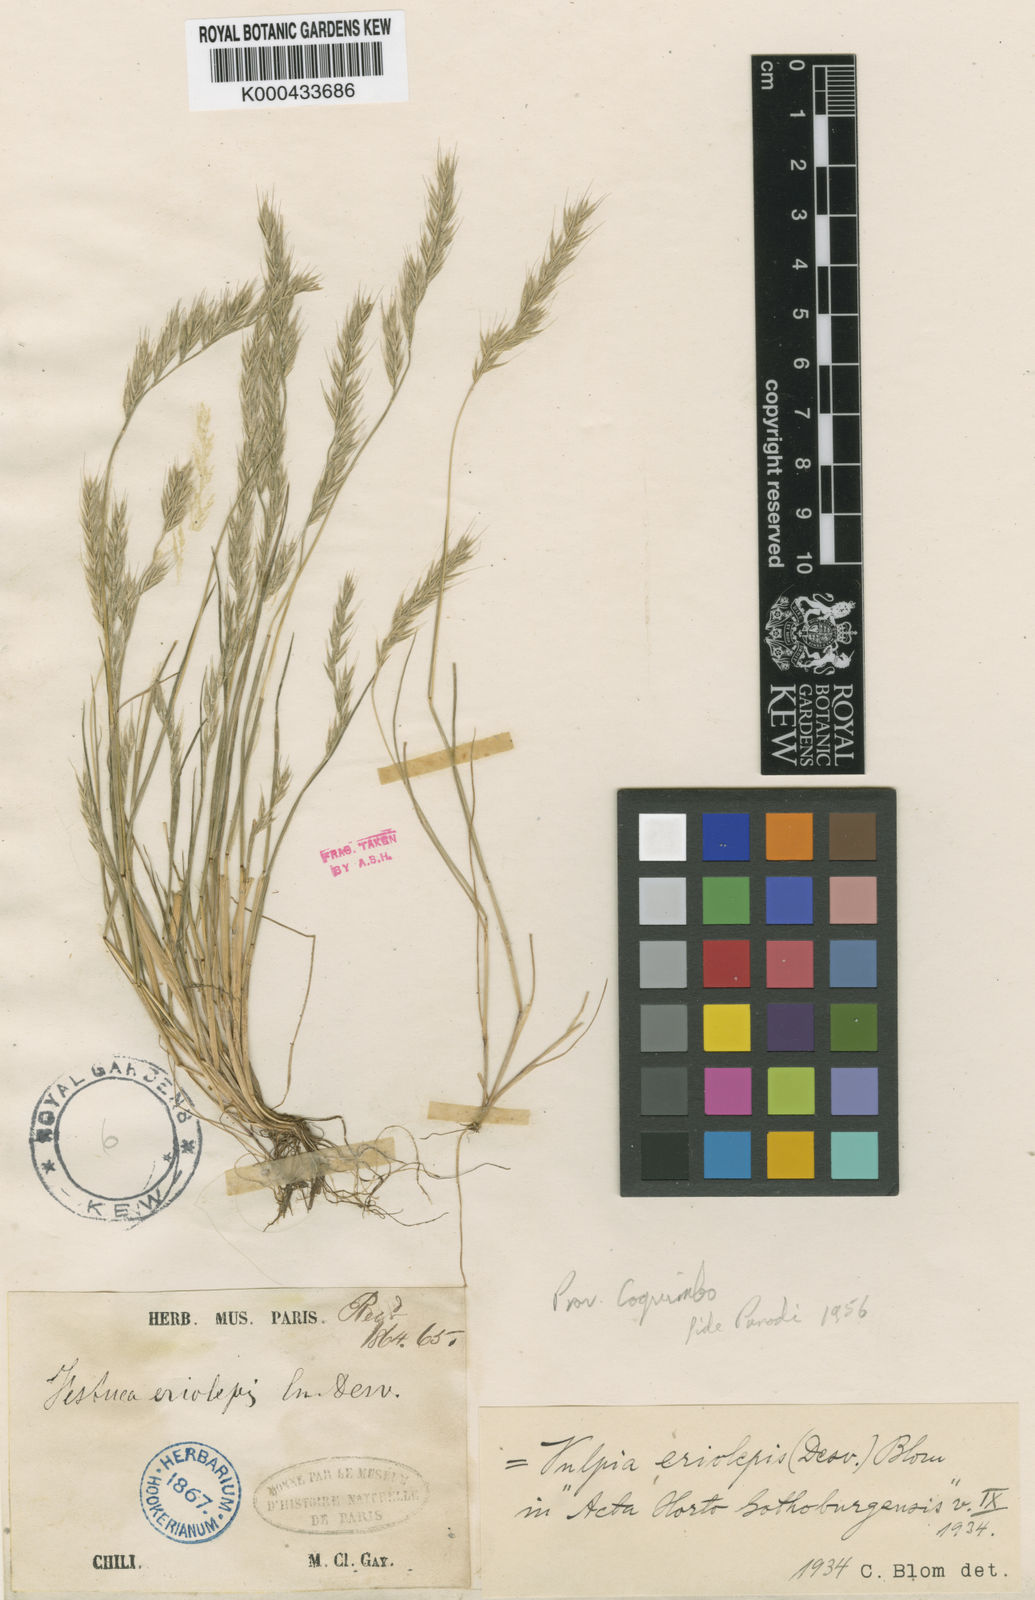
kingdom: Plantae
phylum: Tracheophyta
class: Liliopsida
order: Poales
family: Poaceae
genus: Festuca
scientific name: Festuca antucensis
